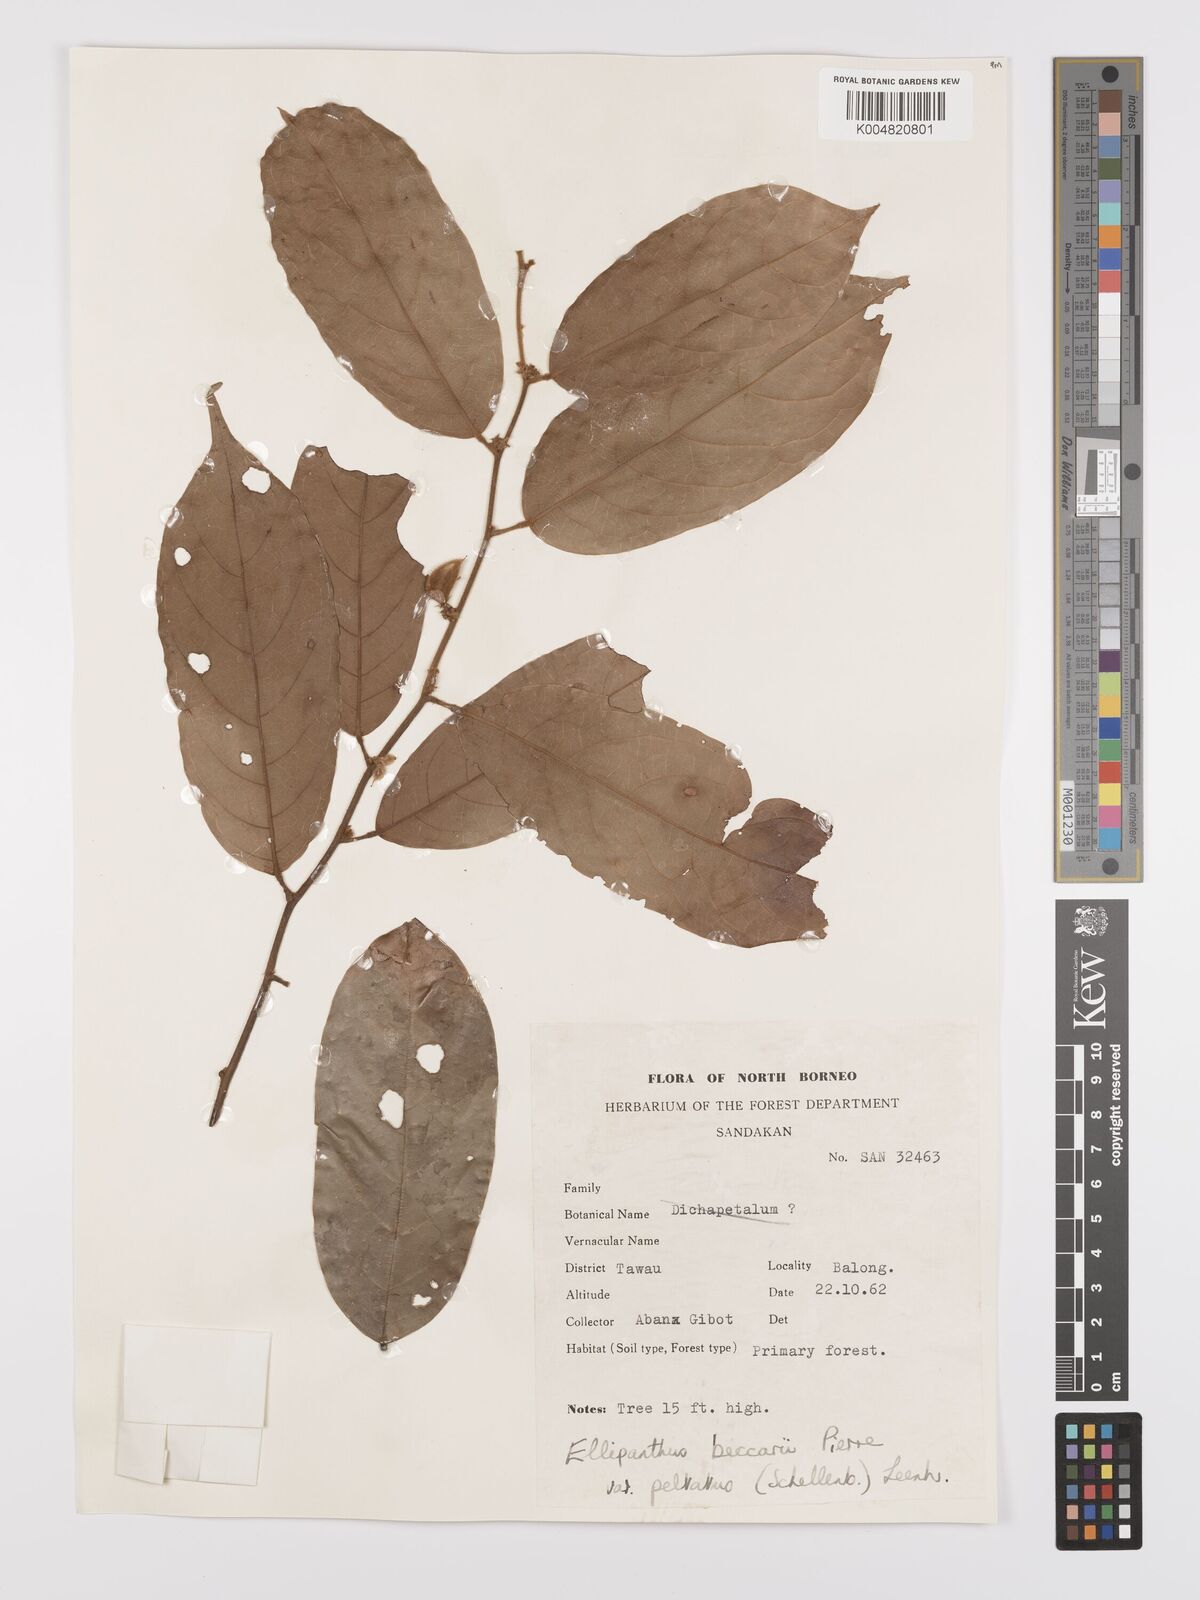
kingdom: Plantae
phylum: Tracheophyta
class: Magnoliopsida
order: Oxalidales
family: Connaraceae
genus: Ellipanthus
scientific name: Ellipanthus beccarii
